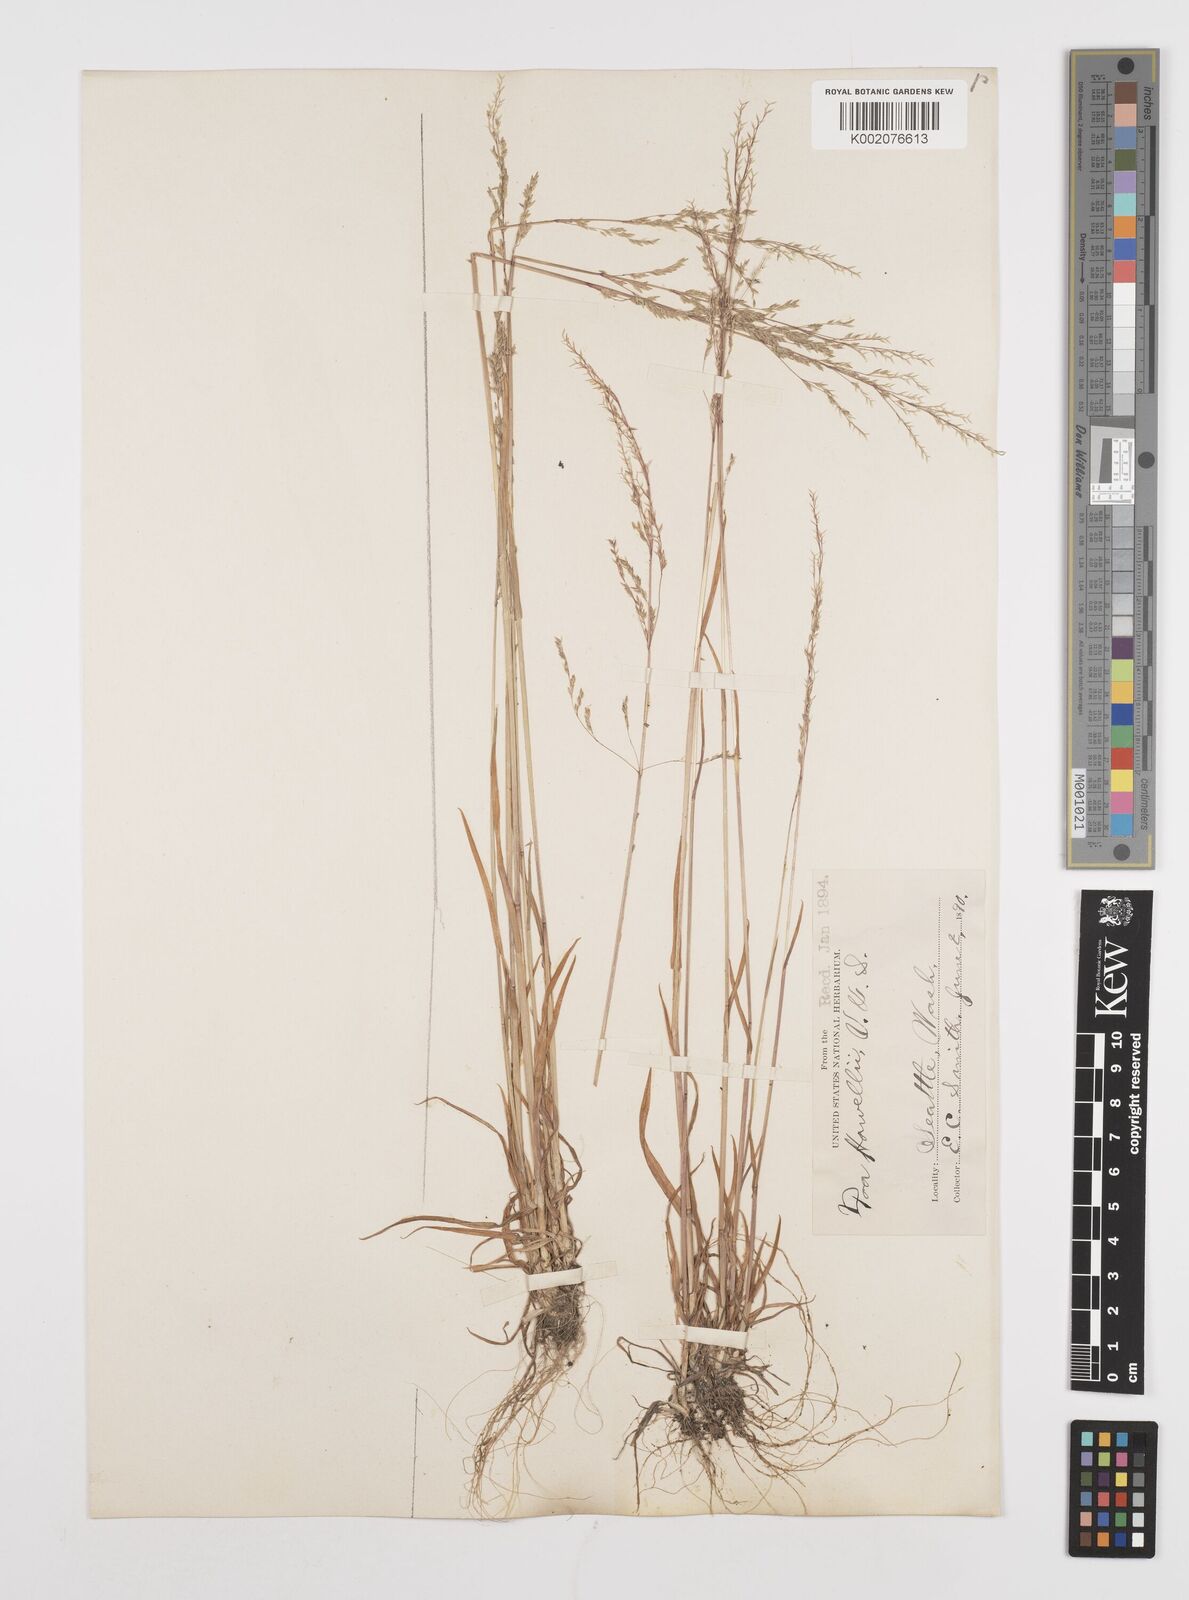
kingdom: Plantae
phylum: Tracheophyta
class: Liliopsida
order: Poales
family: Poaceae
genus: Poa
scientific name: Poa howellii
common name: Howell's bluegrass
